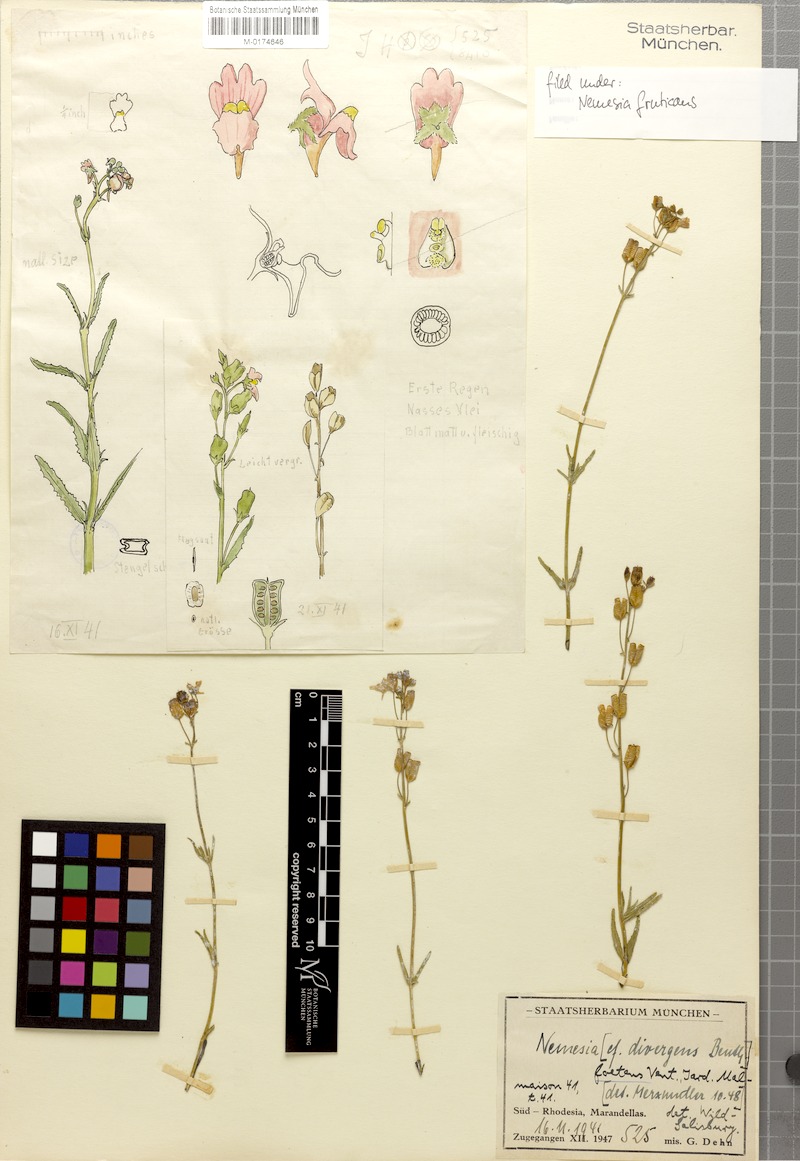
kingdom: Plantae
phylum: Tracheophyta
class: Magnoliopsida
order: Lamiales
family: Scrophulariaceae
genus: Nemesia
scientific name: Nemesia fruticans
